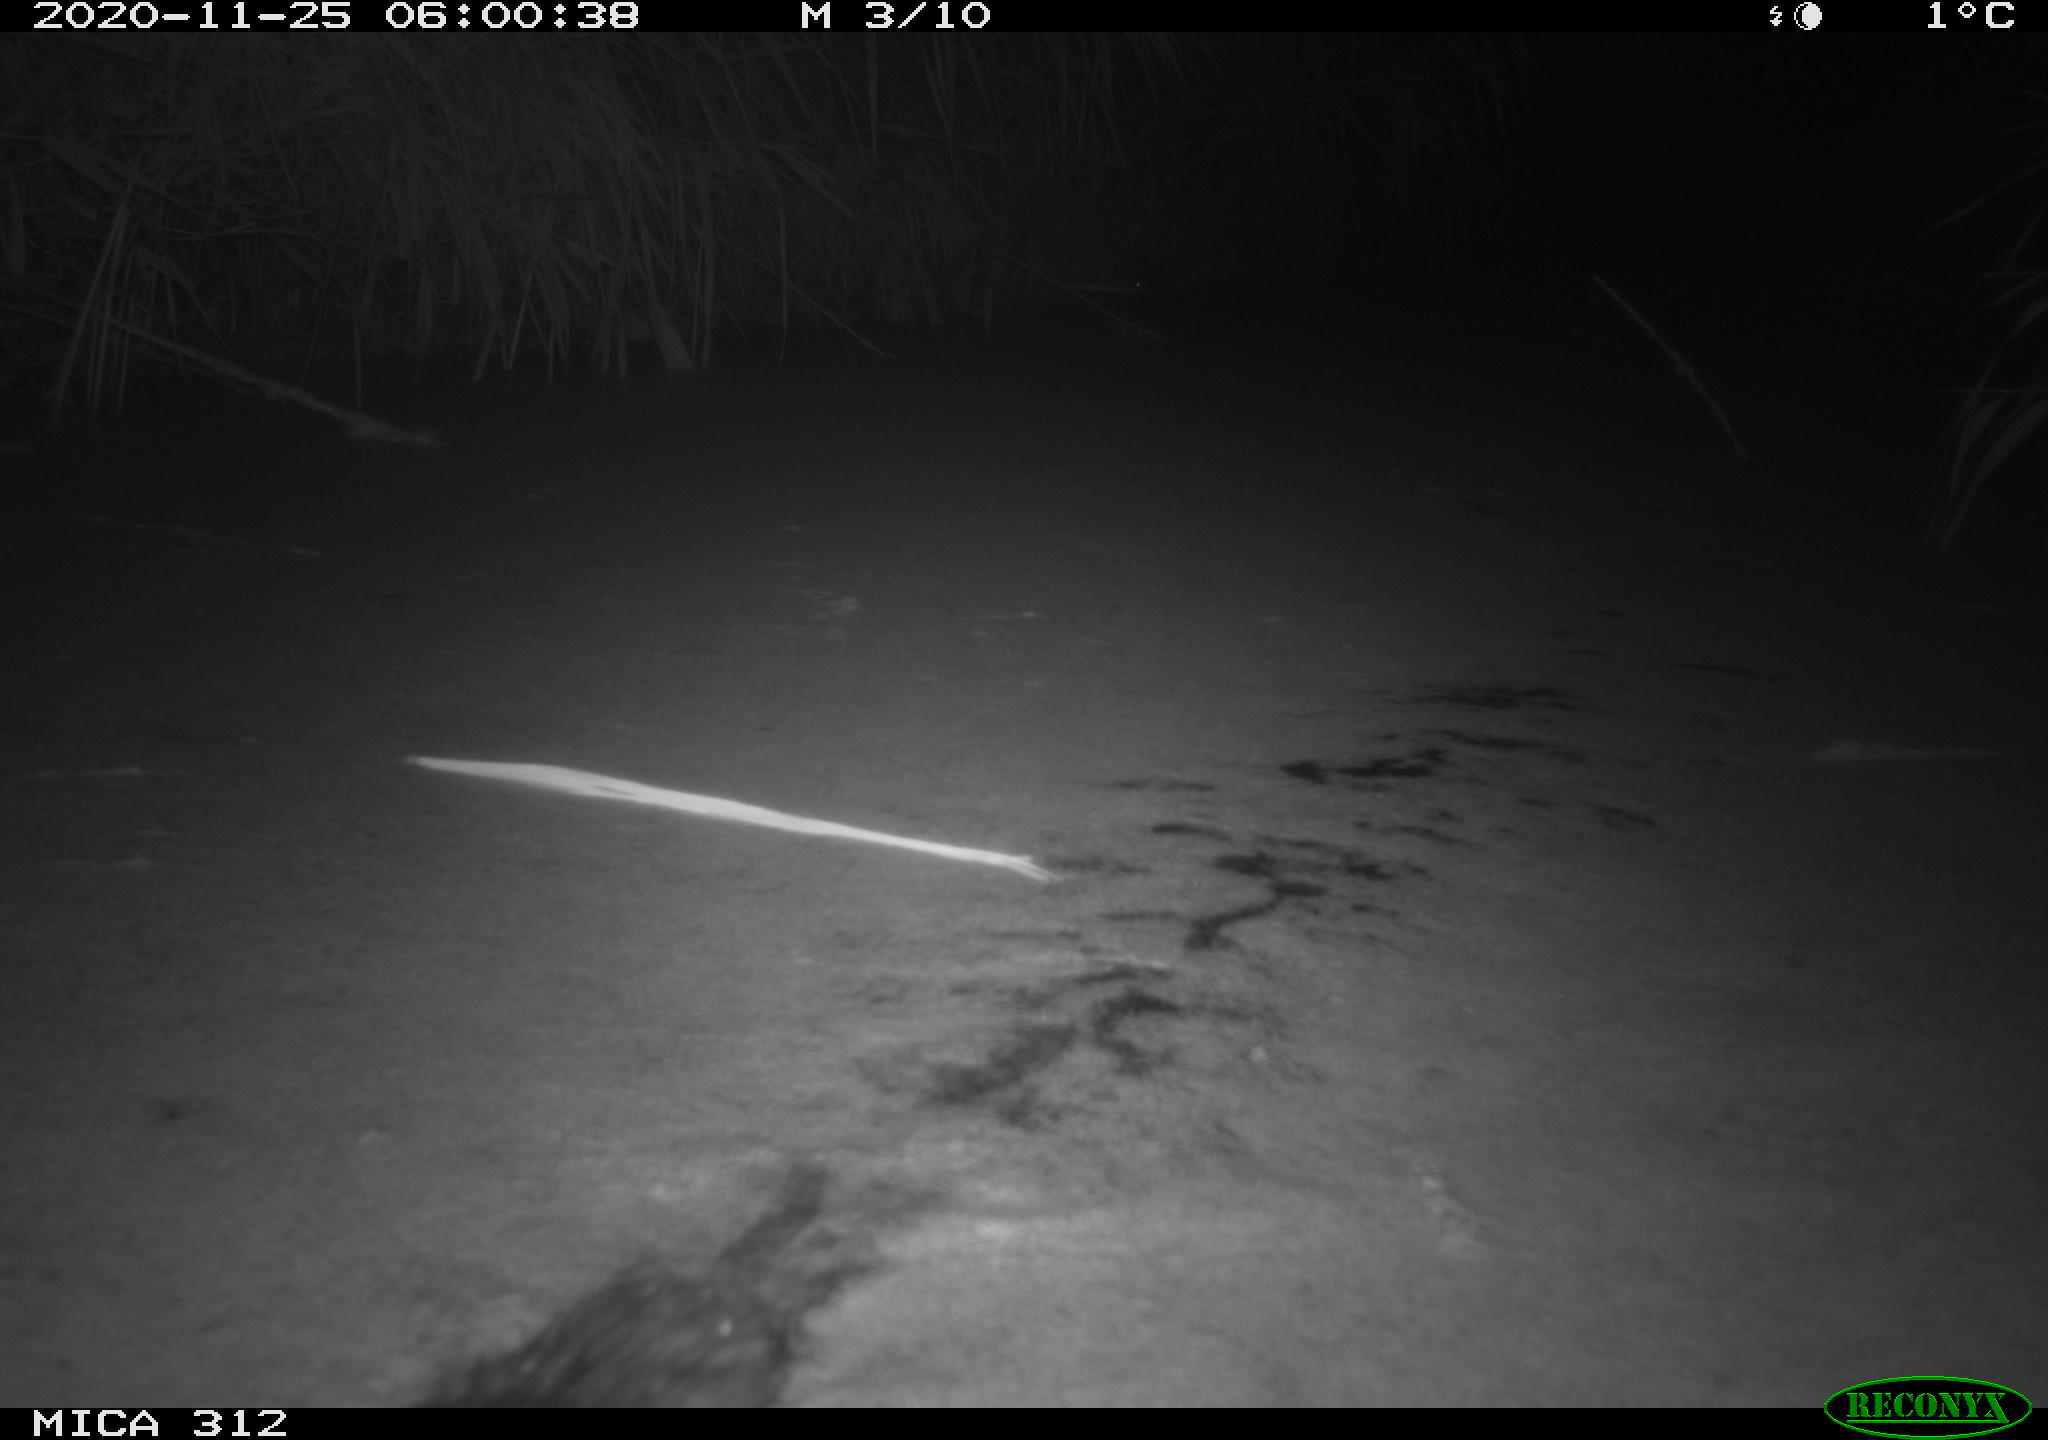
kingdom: Animalia
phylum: Chordata
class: Mammalia
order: Rodentia
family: Muridae
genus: Rattus
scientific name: Rattus norvegicus
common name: Brown rat
